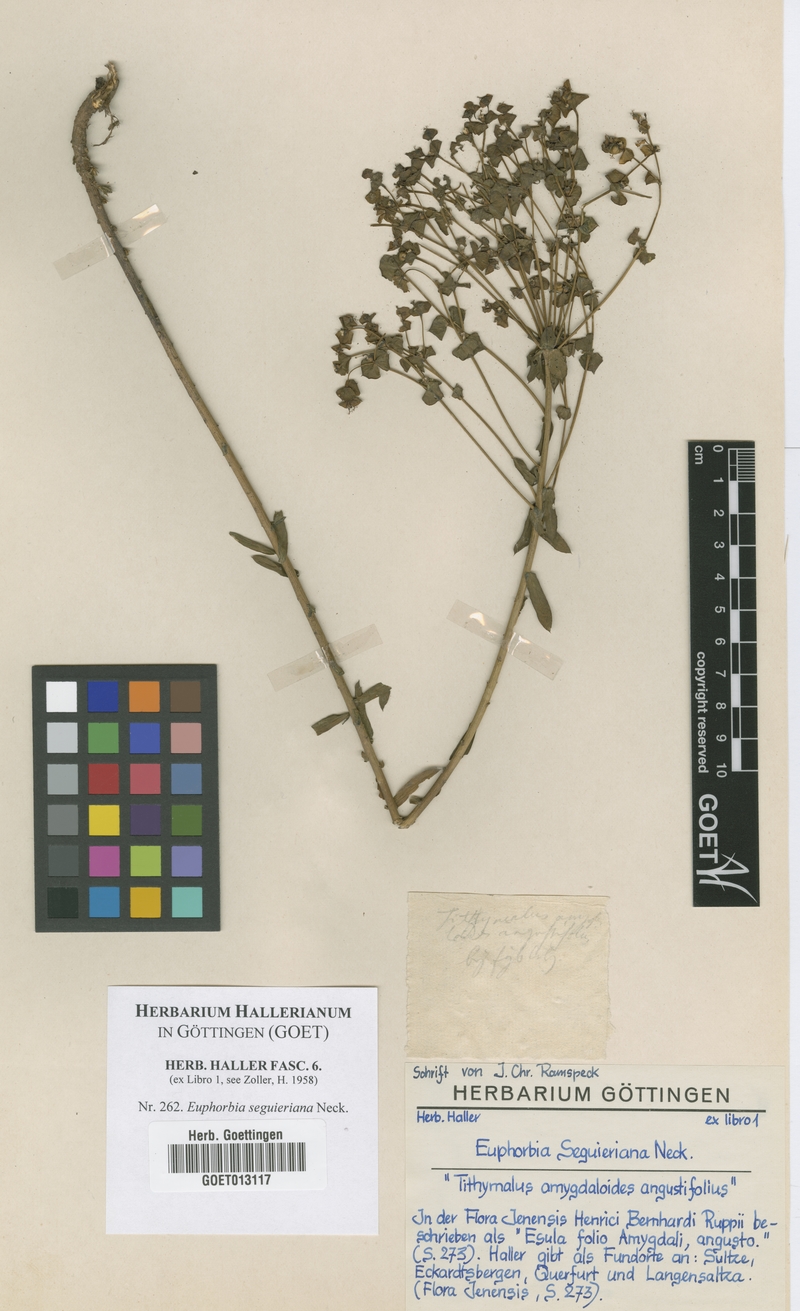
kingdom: Plantae
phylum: Tracheophyta
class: Magnoliopsida
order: Malpighiales
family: Euphorbiaceae
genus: Euphorbia
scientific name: Euphorbia seguieriana
